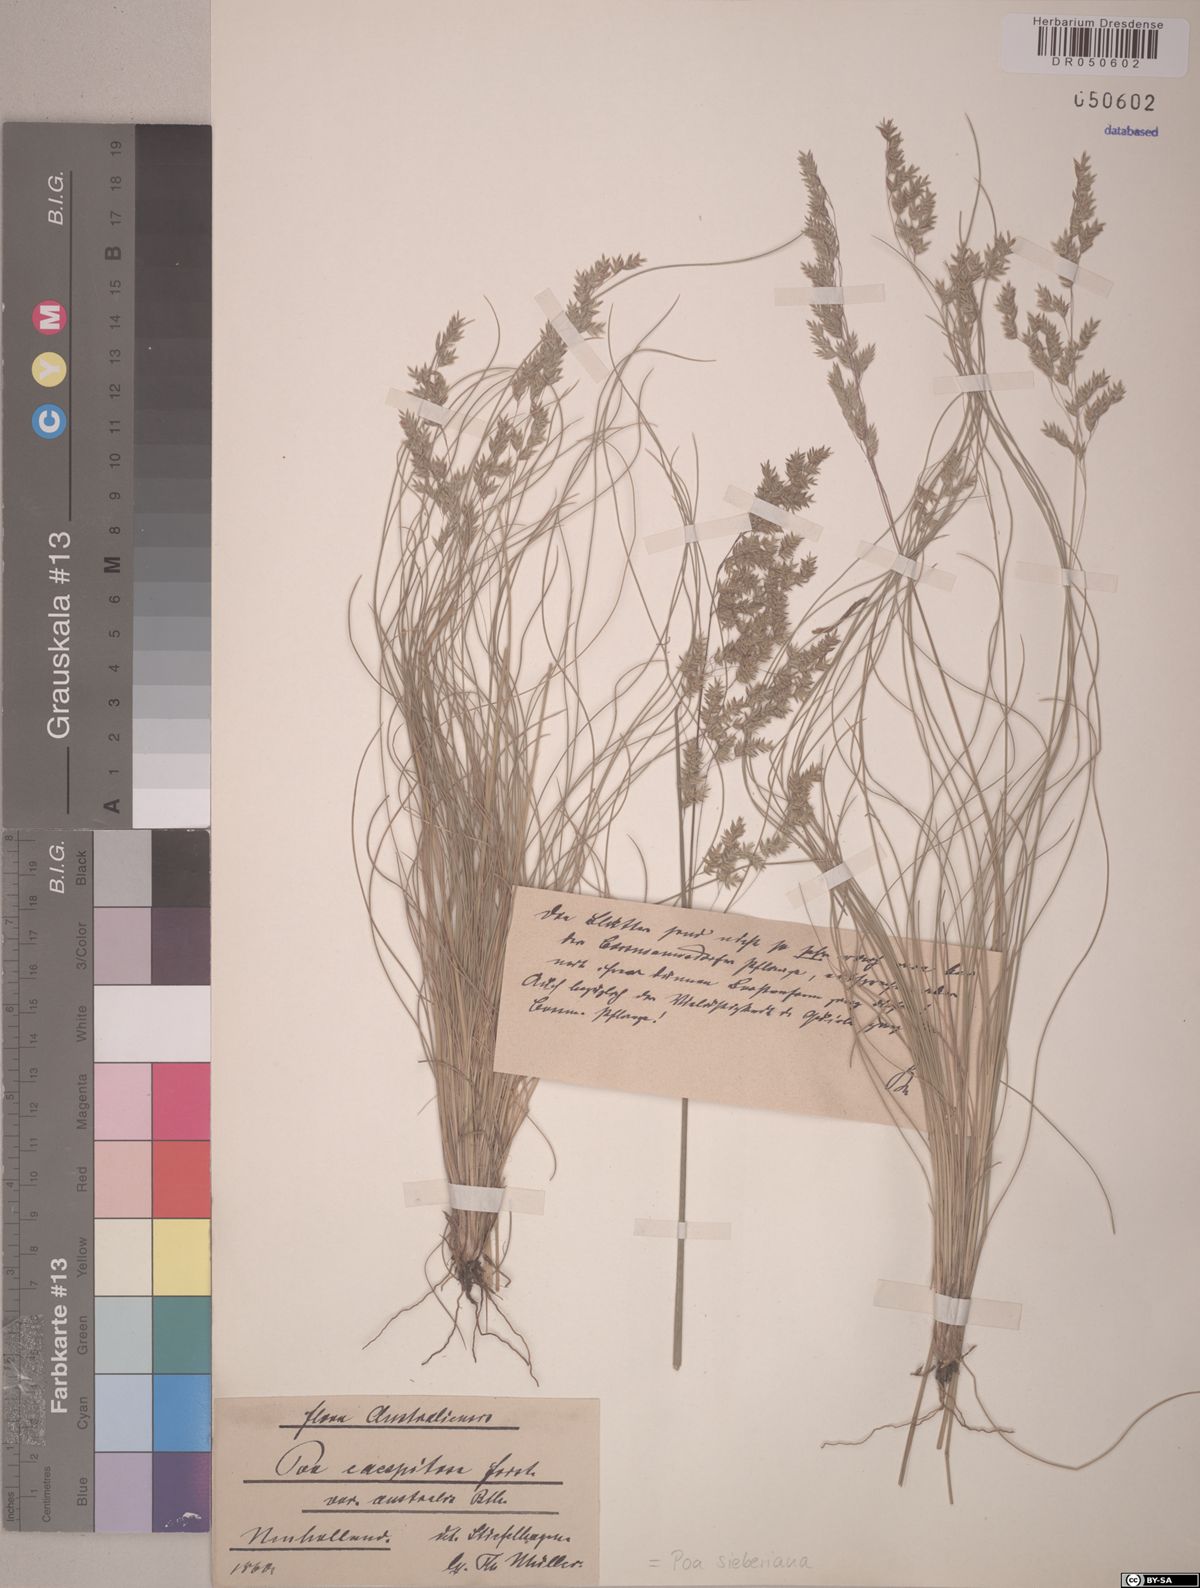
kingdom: Plantae
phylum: Tracheophyta
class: Liliopsida
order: Poales
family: Poaceae
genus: Poa
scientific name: Poa sieberiana
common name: Tussock poa
